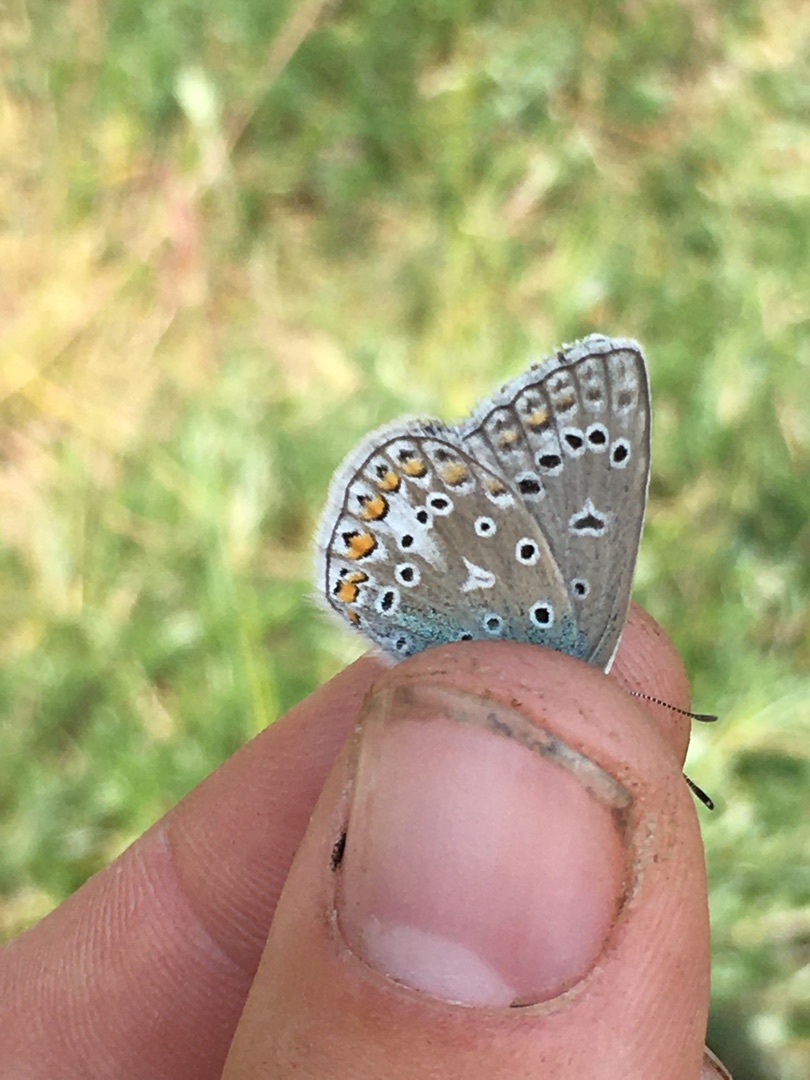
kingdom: Animalia
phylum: Arthropoda
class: Insecta
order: Lepidoptera
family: Lycaenidae
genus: Polyommatus
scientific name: Polyommatus icarus
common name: Almindelig blåfugl
